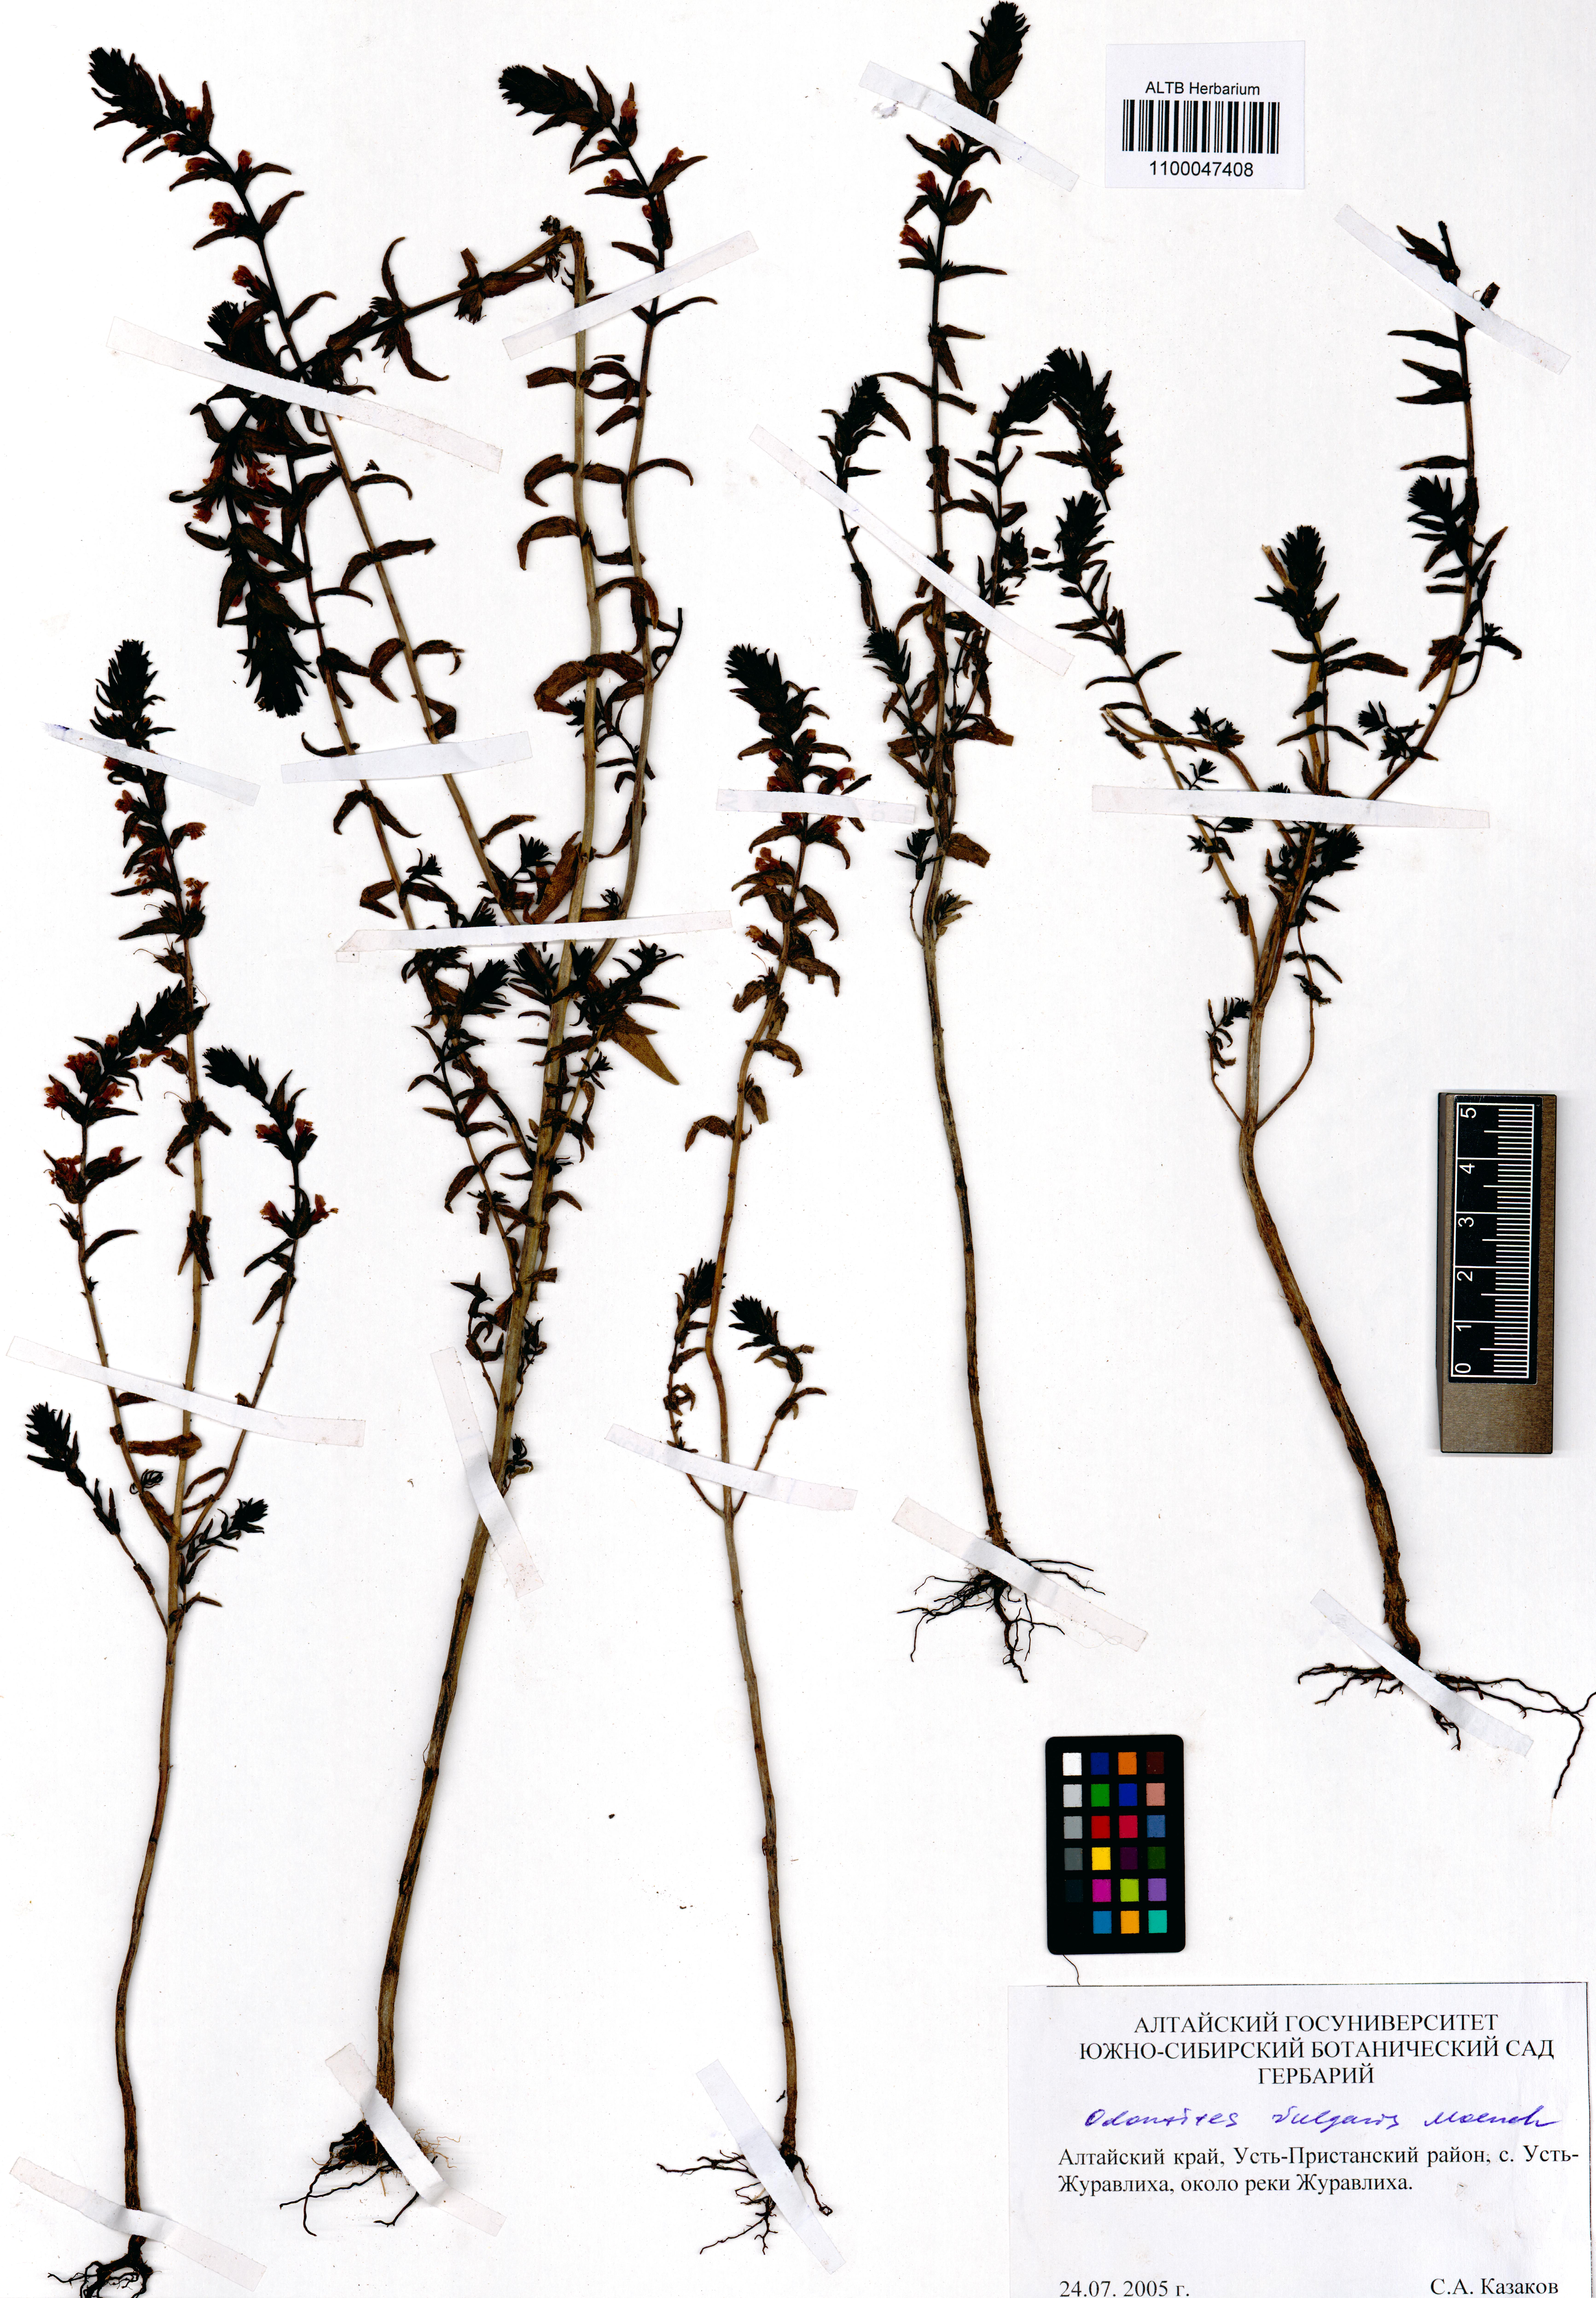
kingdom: Plantae
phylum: Tracheophyta
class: Magnoliopsida
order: Lamiales
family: Orobanchaceae
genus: Odontites
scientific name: Odontites vulgaris
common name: Broomrape
